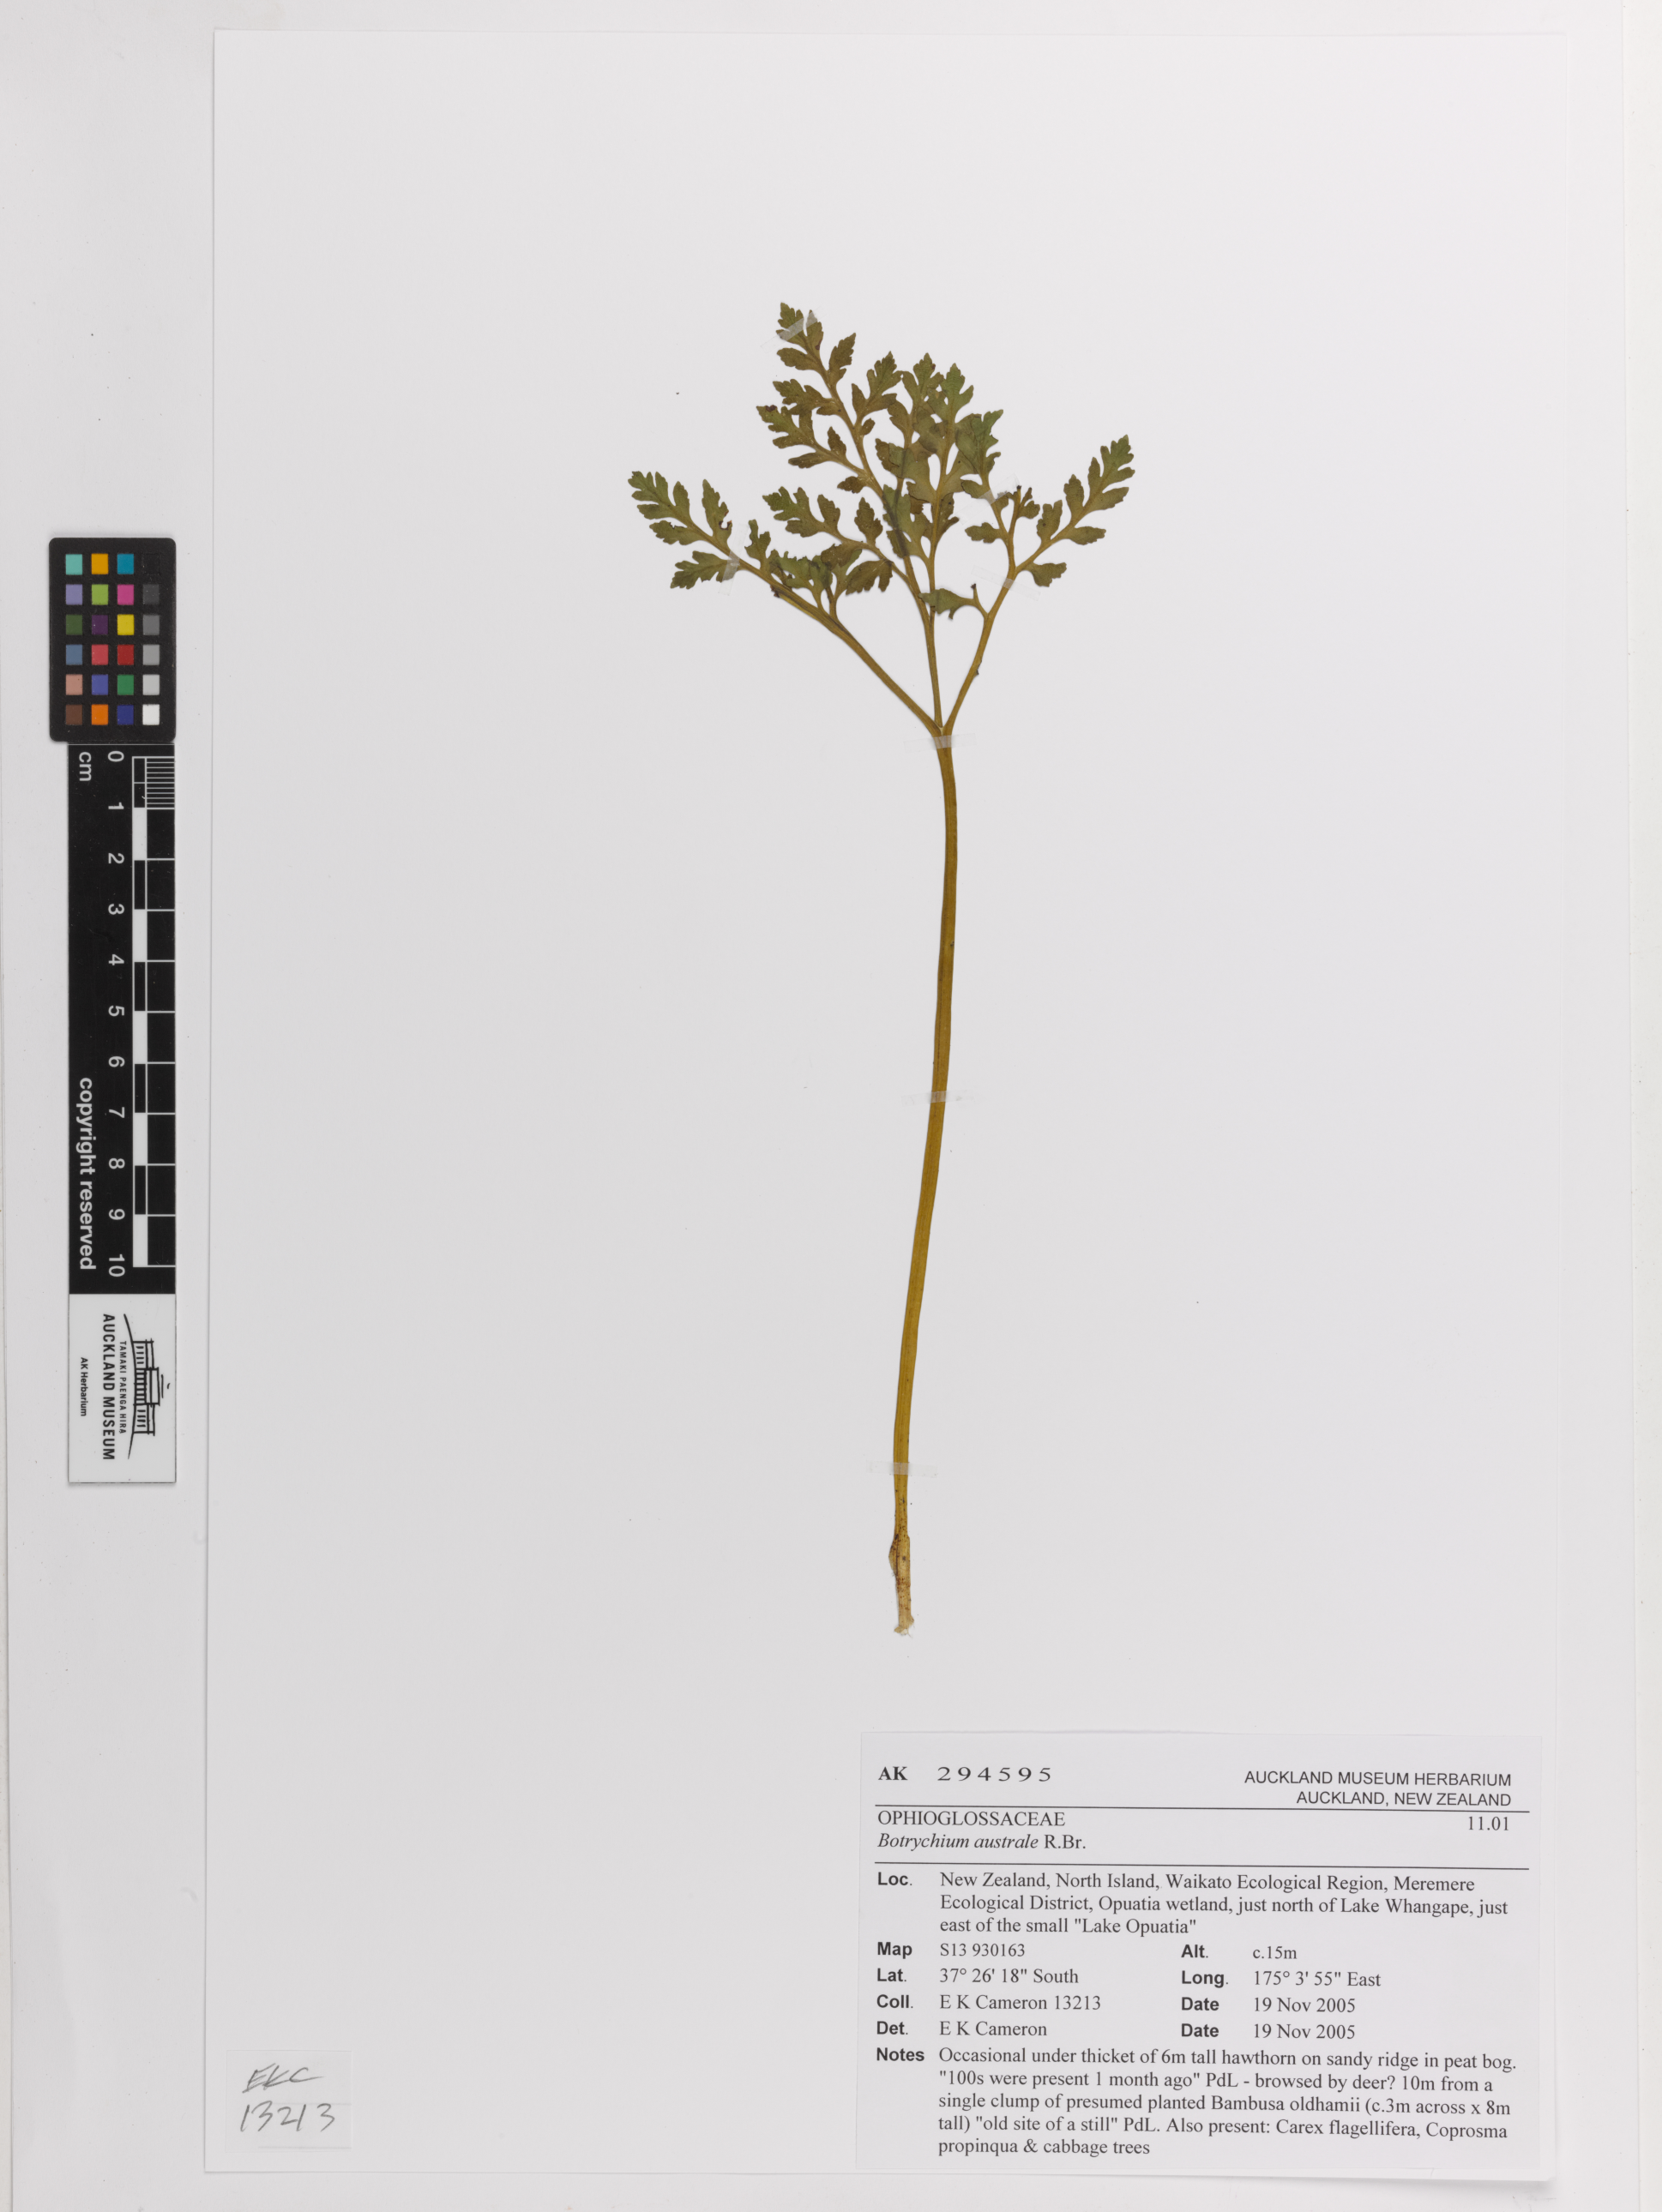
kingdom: Plantae
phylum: Tracheophyta
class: Polypodiopsida
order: Ophioglossales
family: Ophioglossaceae
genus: Sceptridium
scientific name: Sceptridium australe
